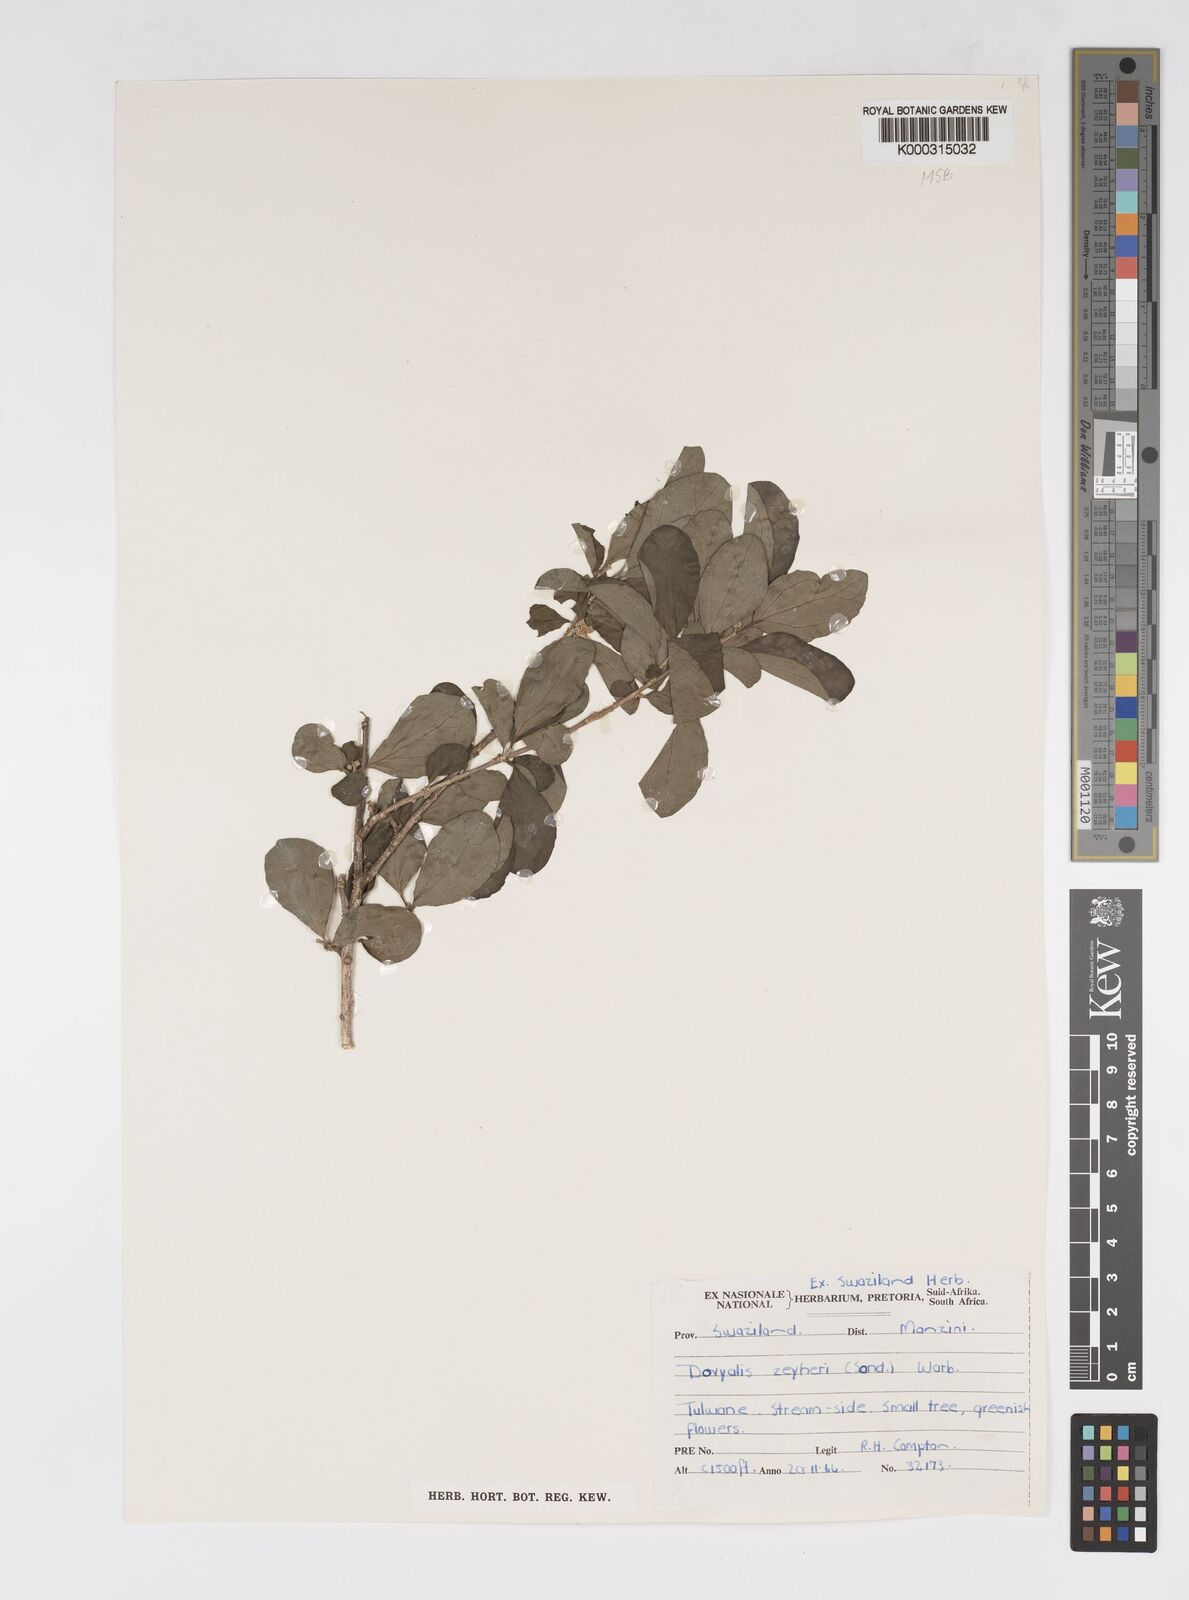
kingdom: Plantae
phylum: Tracheophyta
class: Magnoliopsida
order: Malpighiales
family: Salicaceae
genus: Dovyalis
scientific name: Dovyalis zeyheri
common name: Apricot sourberry
